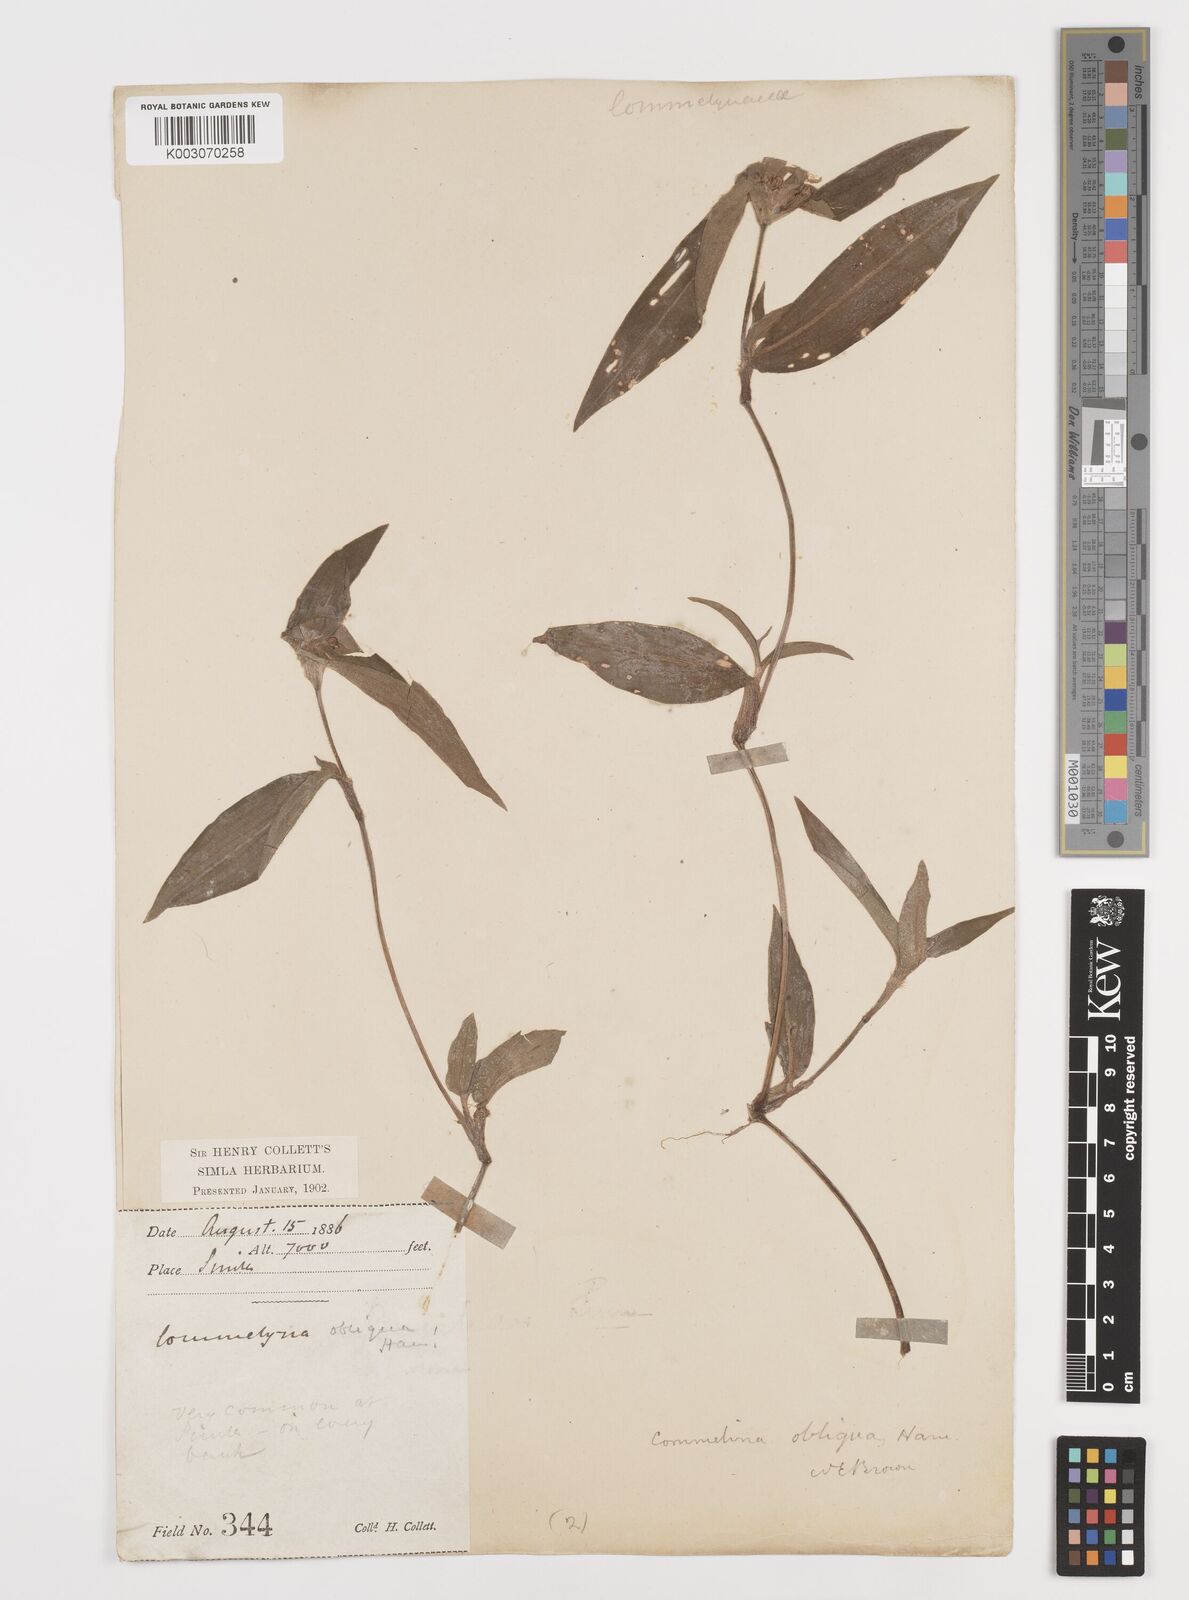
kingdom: Plantae
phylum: Tracheophyta
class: Liliopsida
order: Commelinales
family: Commelinaceae
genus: Commelina
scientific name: Commelina paludosa
